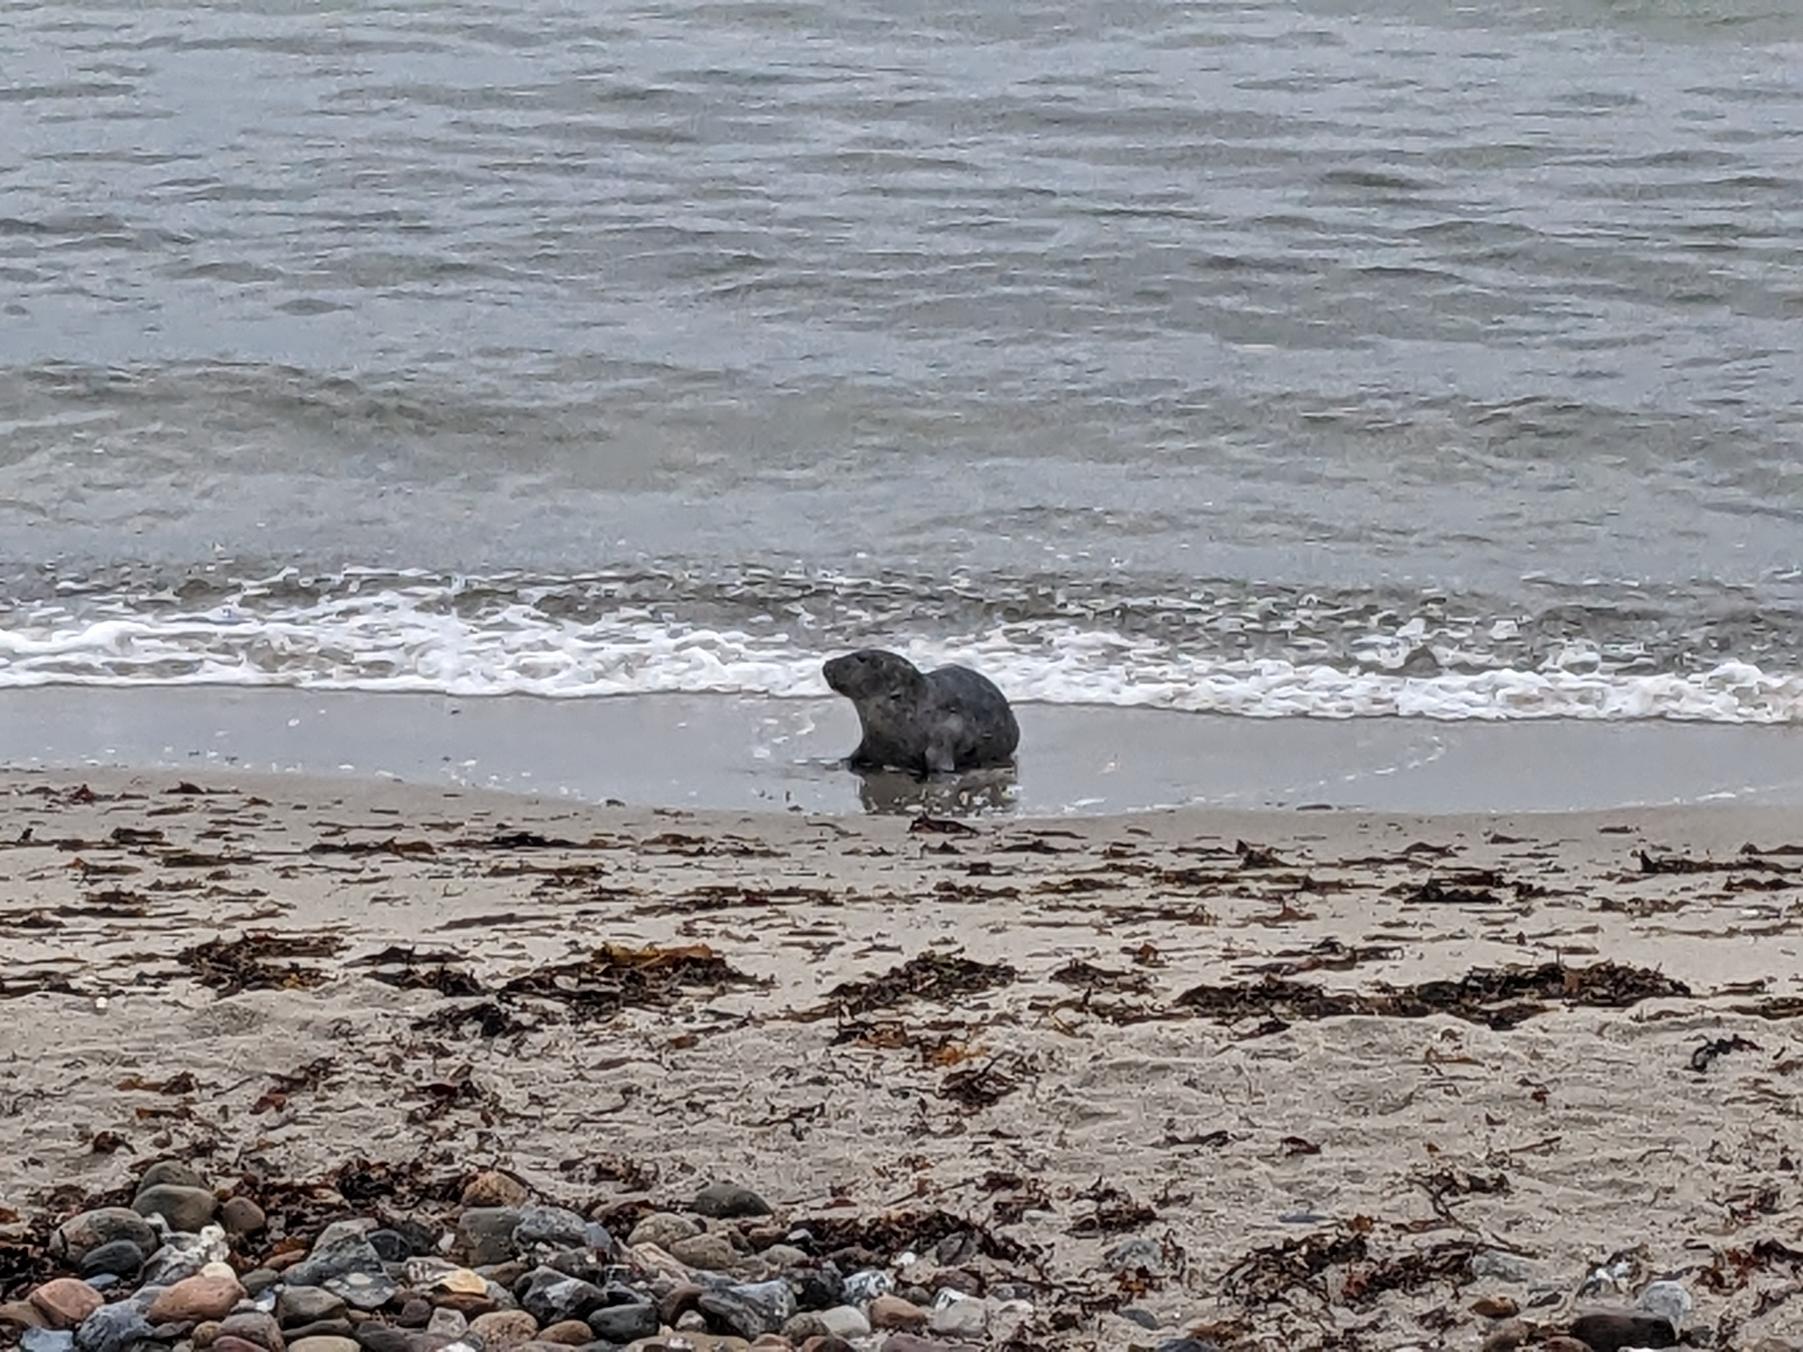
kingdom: Animalia
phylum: Chordata
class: Mammalia
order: Carnivora
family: Phocidae
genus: Halichoerus
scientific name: Halichoerus grypus
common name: Gråsæl
